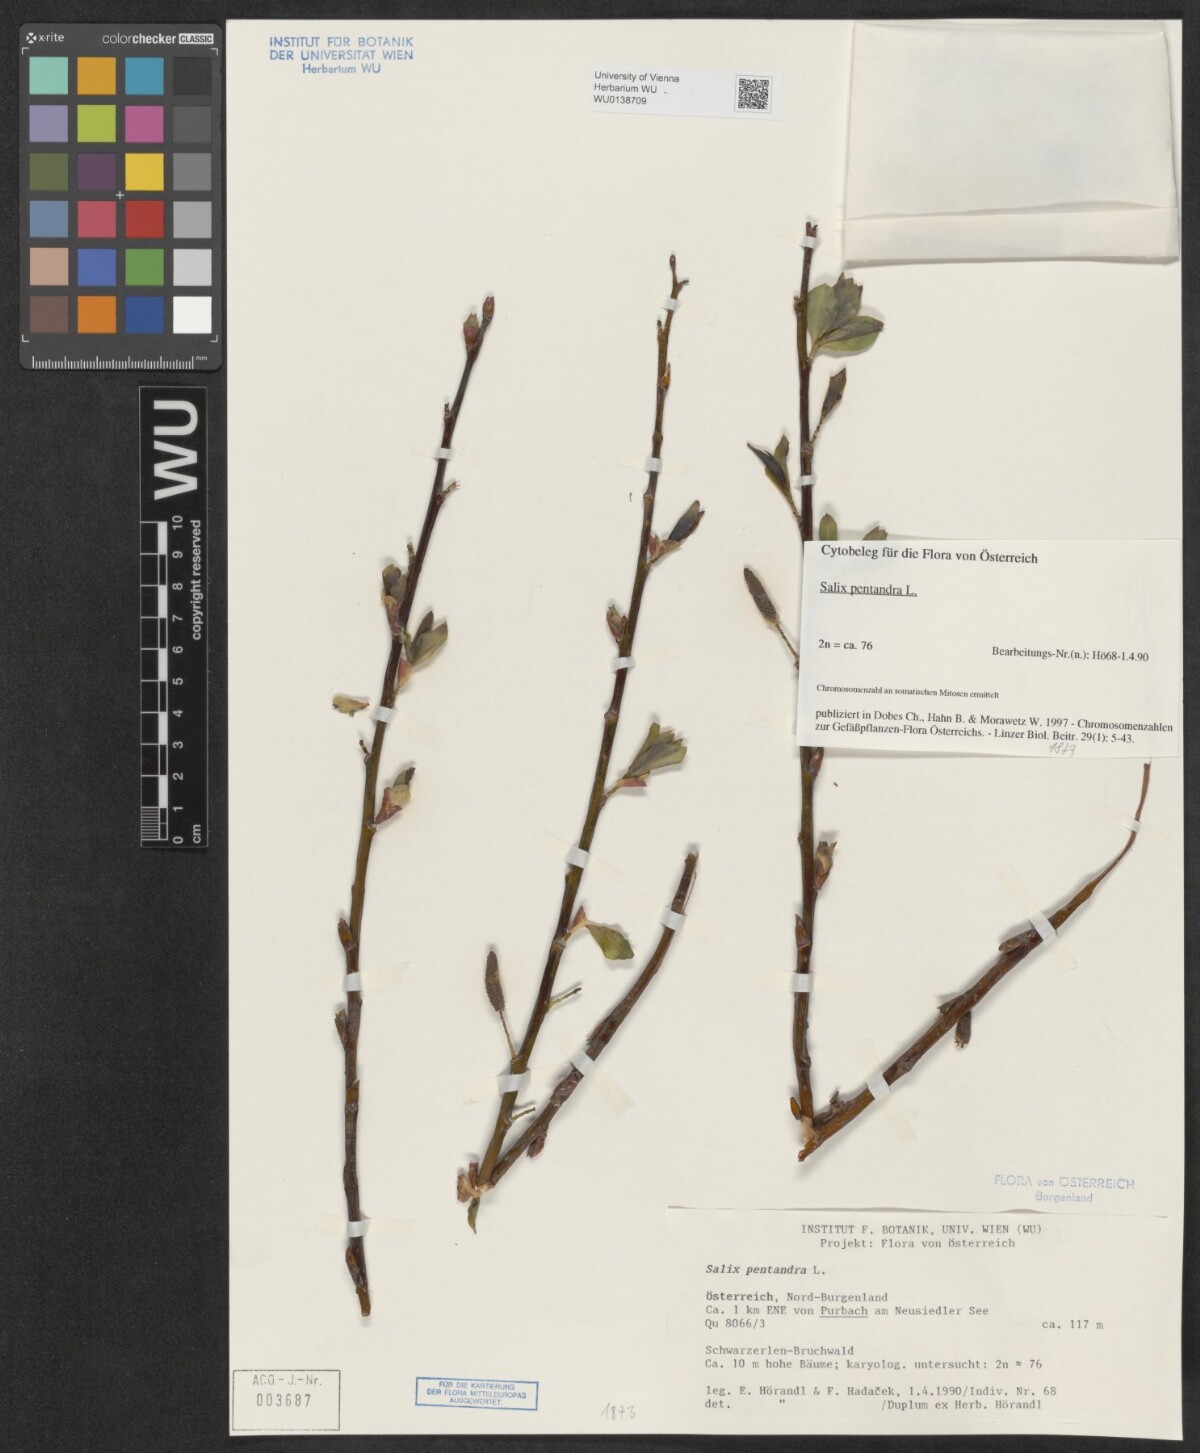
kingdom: Plantae
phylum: Tracheophyta
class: Magnoliopsida
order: Malpighiales
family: Salicaceae
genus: Salix
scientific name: Salix pentandra
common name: Bay willow
